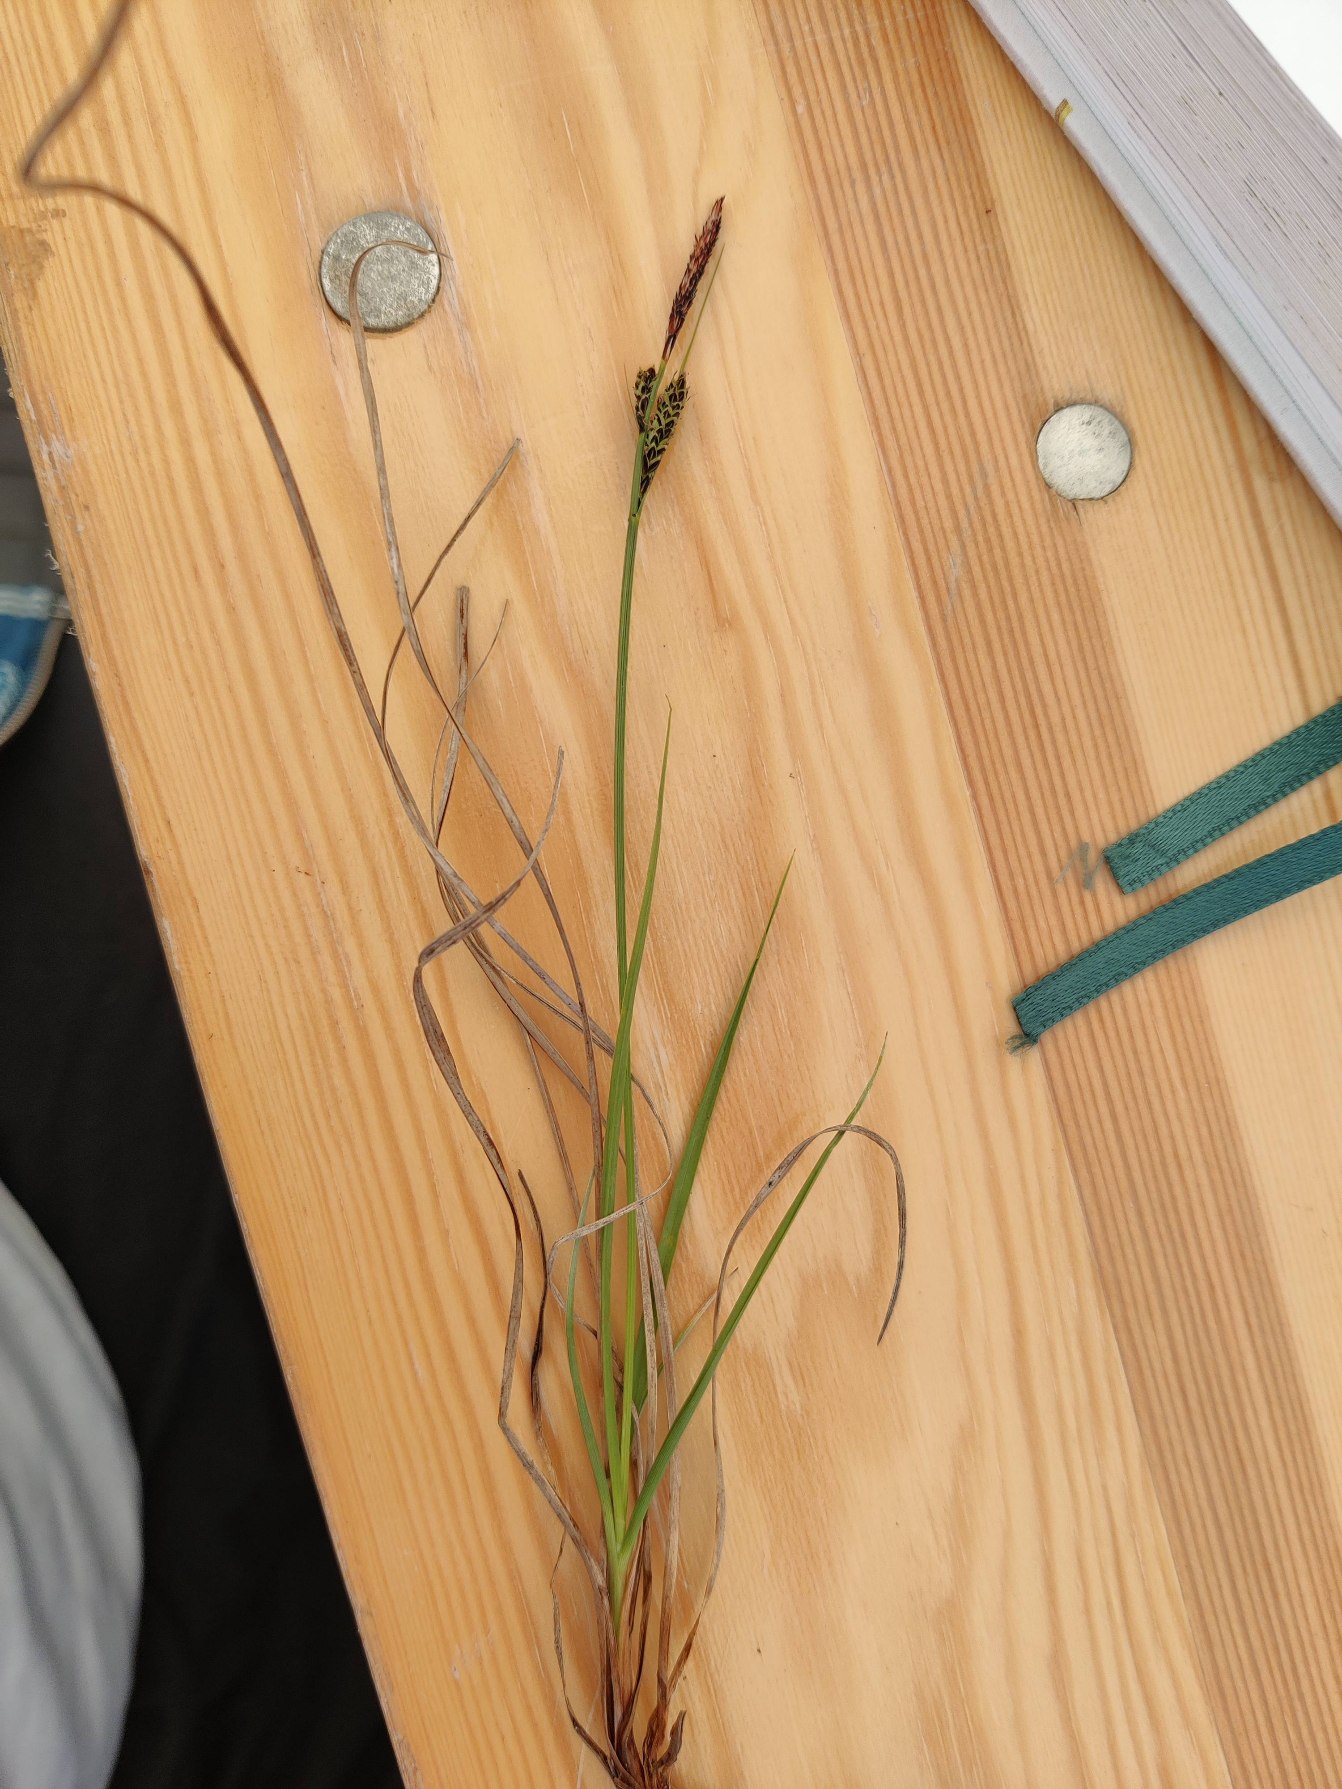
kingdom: Plantae
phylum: Tracheophyta
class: Liliopsida
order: Poales
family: Cyperaceae
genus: Carex
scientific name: Carex nigra
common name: Almindelig star
